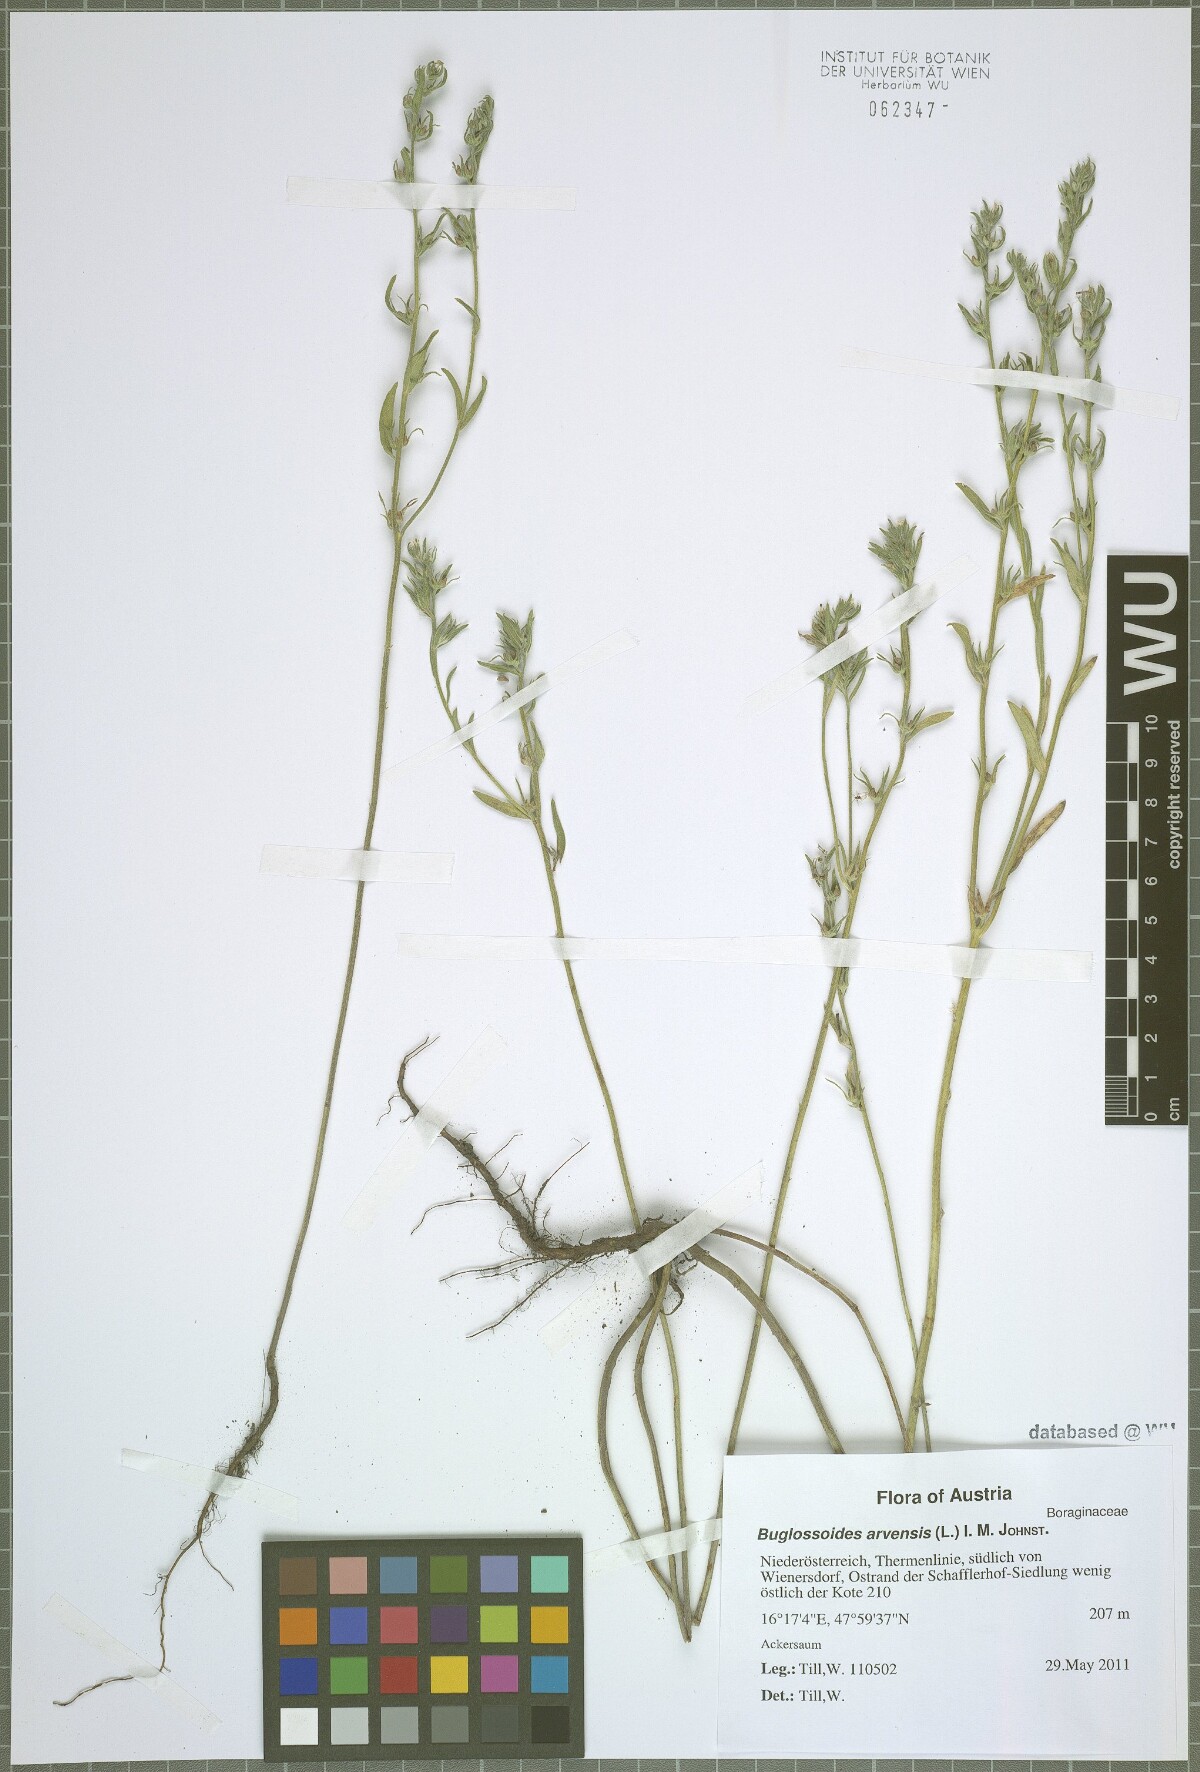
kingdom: Plantae
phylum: Tracheophyta
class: Magnoliopsida
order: Boraginales
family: Boraginaceae
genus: Buglossoides
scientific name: Buglossoides arvensis
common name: Corn gromwell
